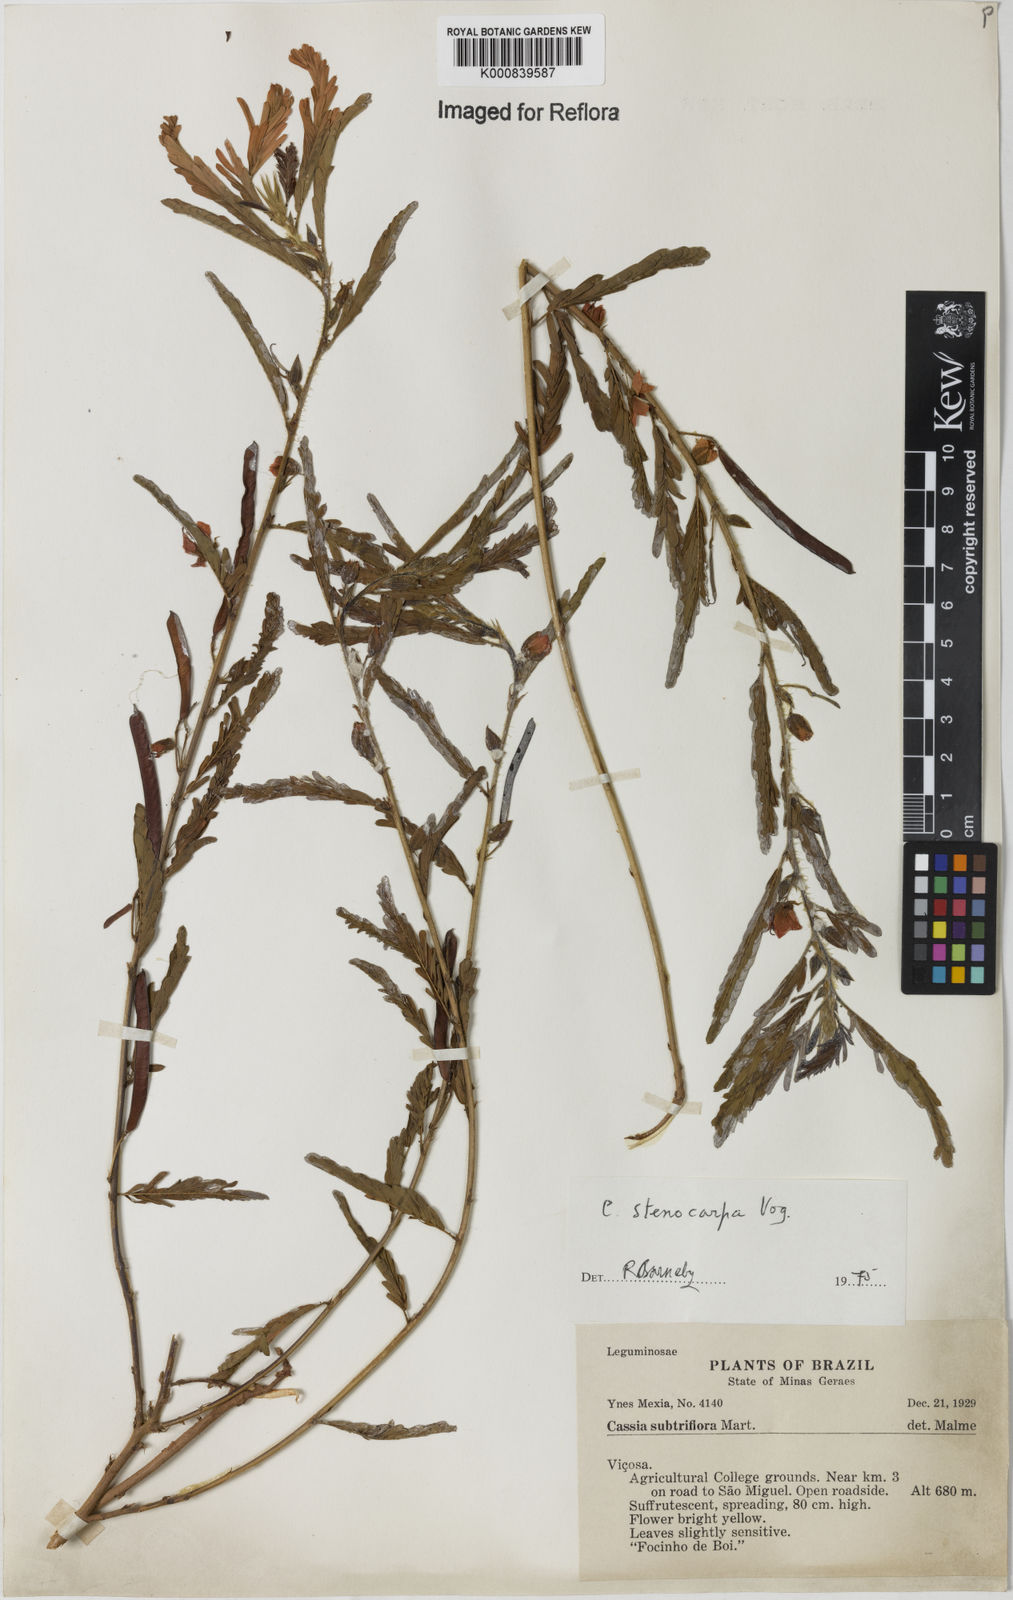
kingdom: Plantae
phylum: Tracheophyta
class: Magnoliopsida
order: Fabales
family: Fabaceae
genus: Chamaecrista
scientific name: Chamaecrista nictitans
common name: Sensitive cassia
